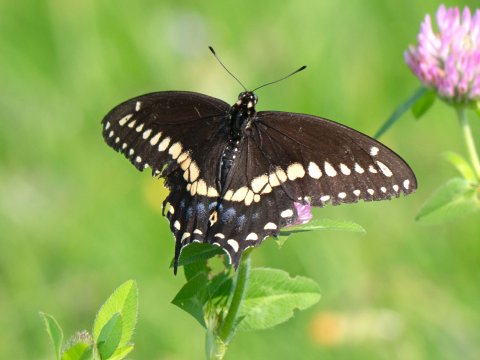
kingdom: Animalia
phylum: Arthropoda
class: Insecta
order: Lepidoptera
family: Papilionidae
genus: Papilio
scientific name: Papilio polyxenes
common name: Black Swallowtail
